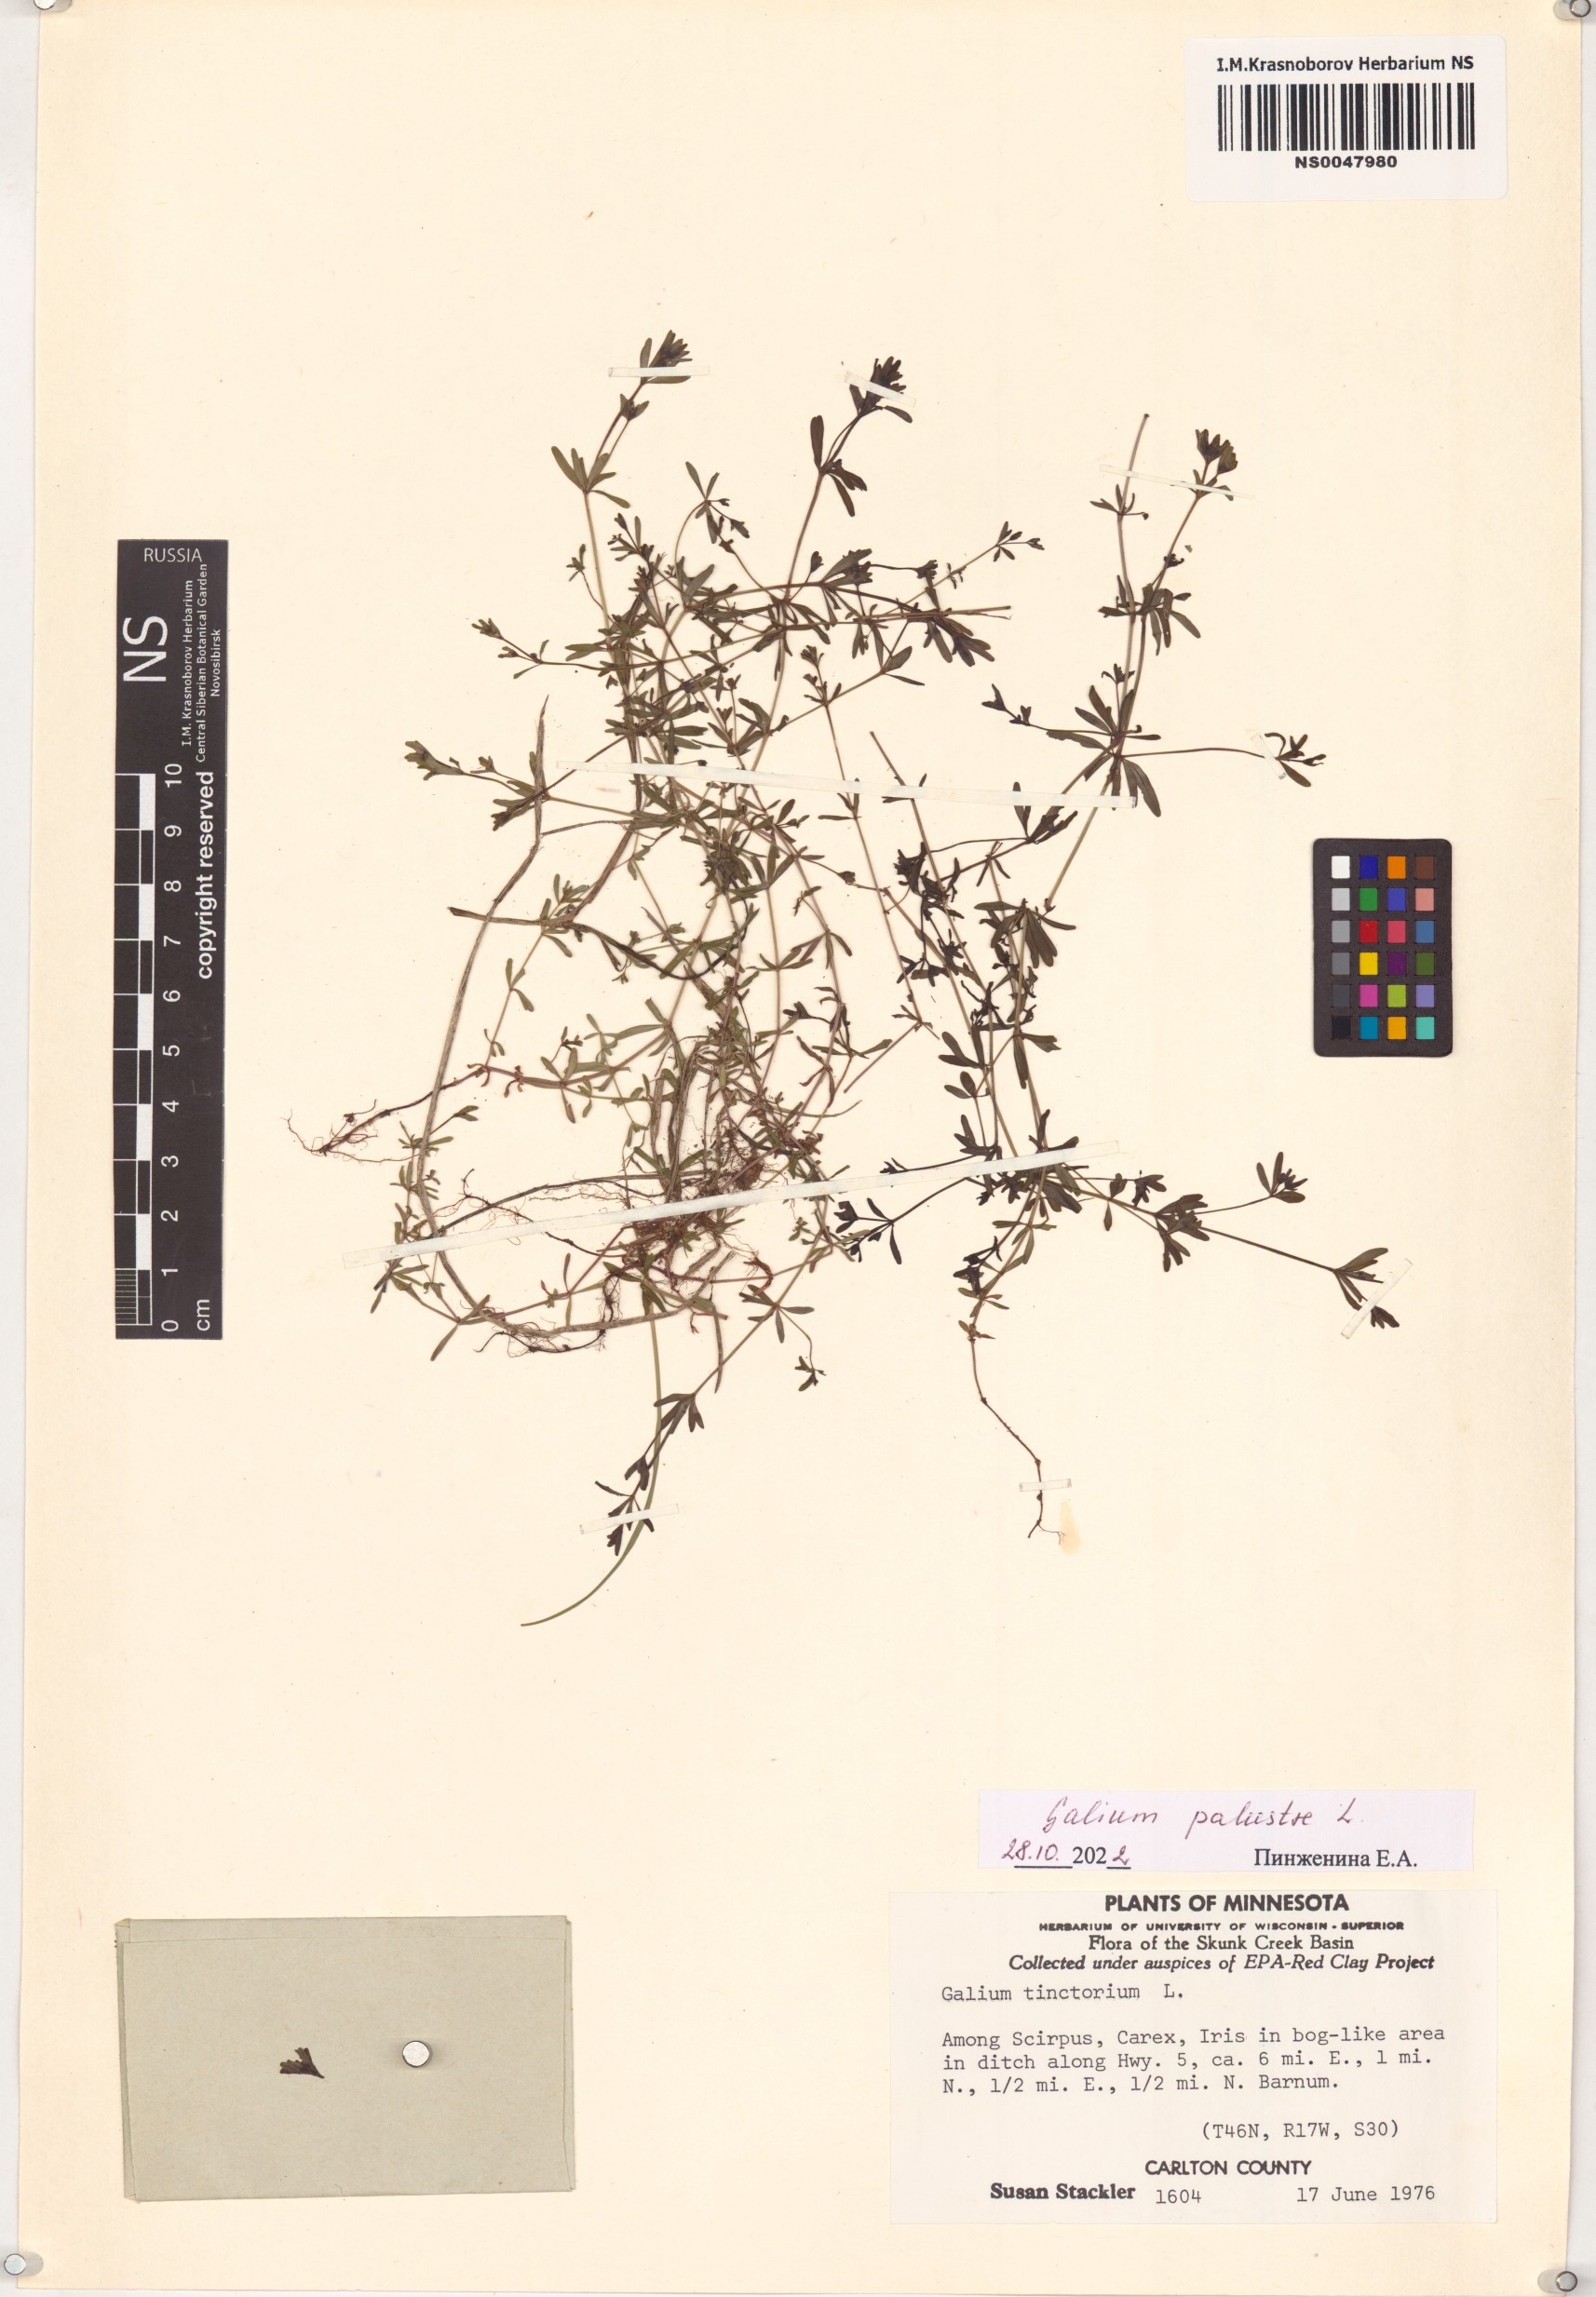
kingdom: Plantae
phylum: Tracheophyta
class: Magnoliopsida
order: Gentianales
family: Rubiaceae
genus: Galium
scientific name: Galium palustre
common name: Common marsh-bedstraw
